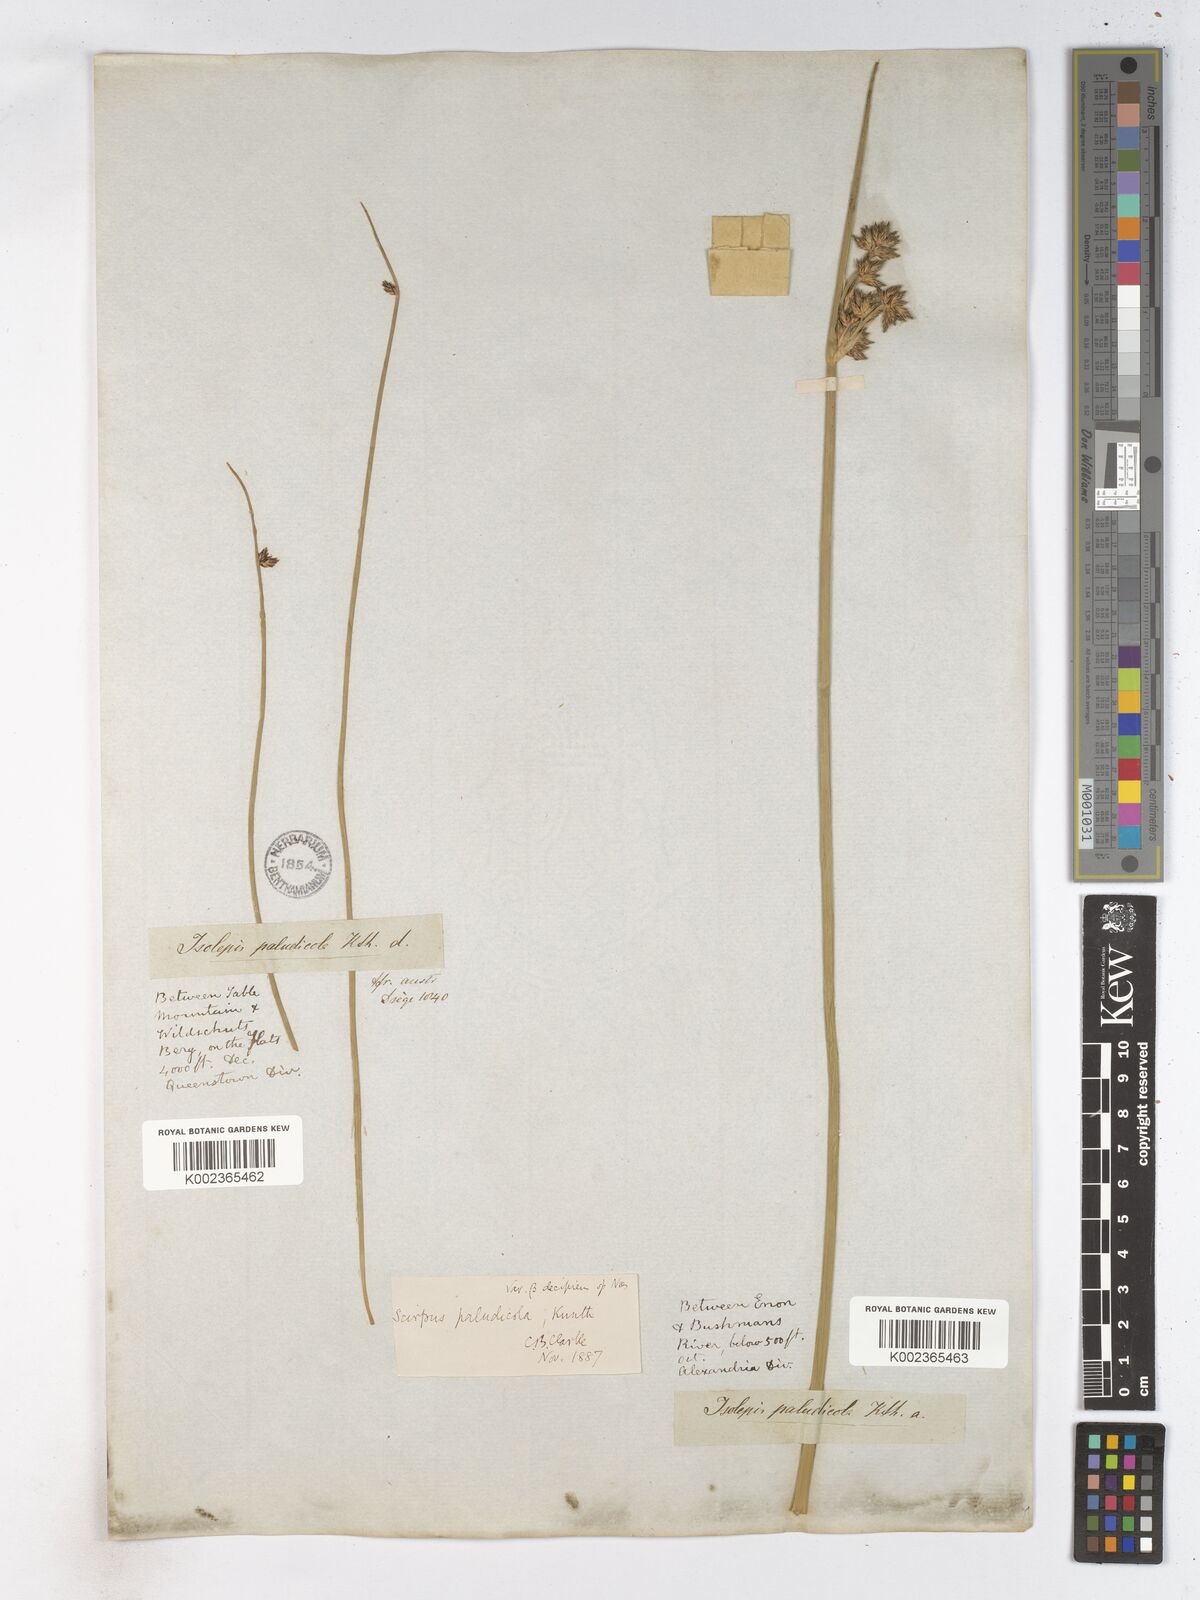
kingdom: Plantae
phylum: Tracheophyta
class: Liliopsida
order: Poales
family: Cyperaceae
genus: Schoenoplectiella
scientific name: Schoenoplectiella paludicola
